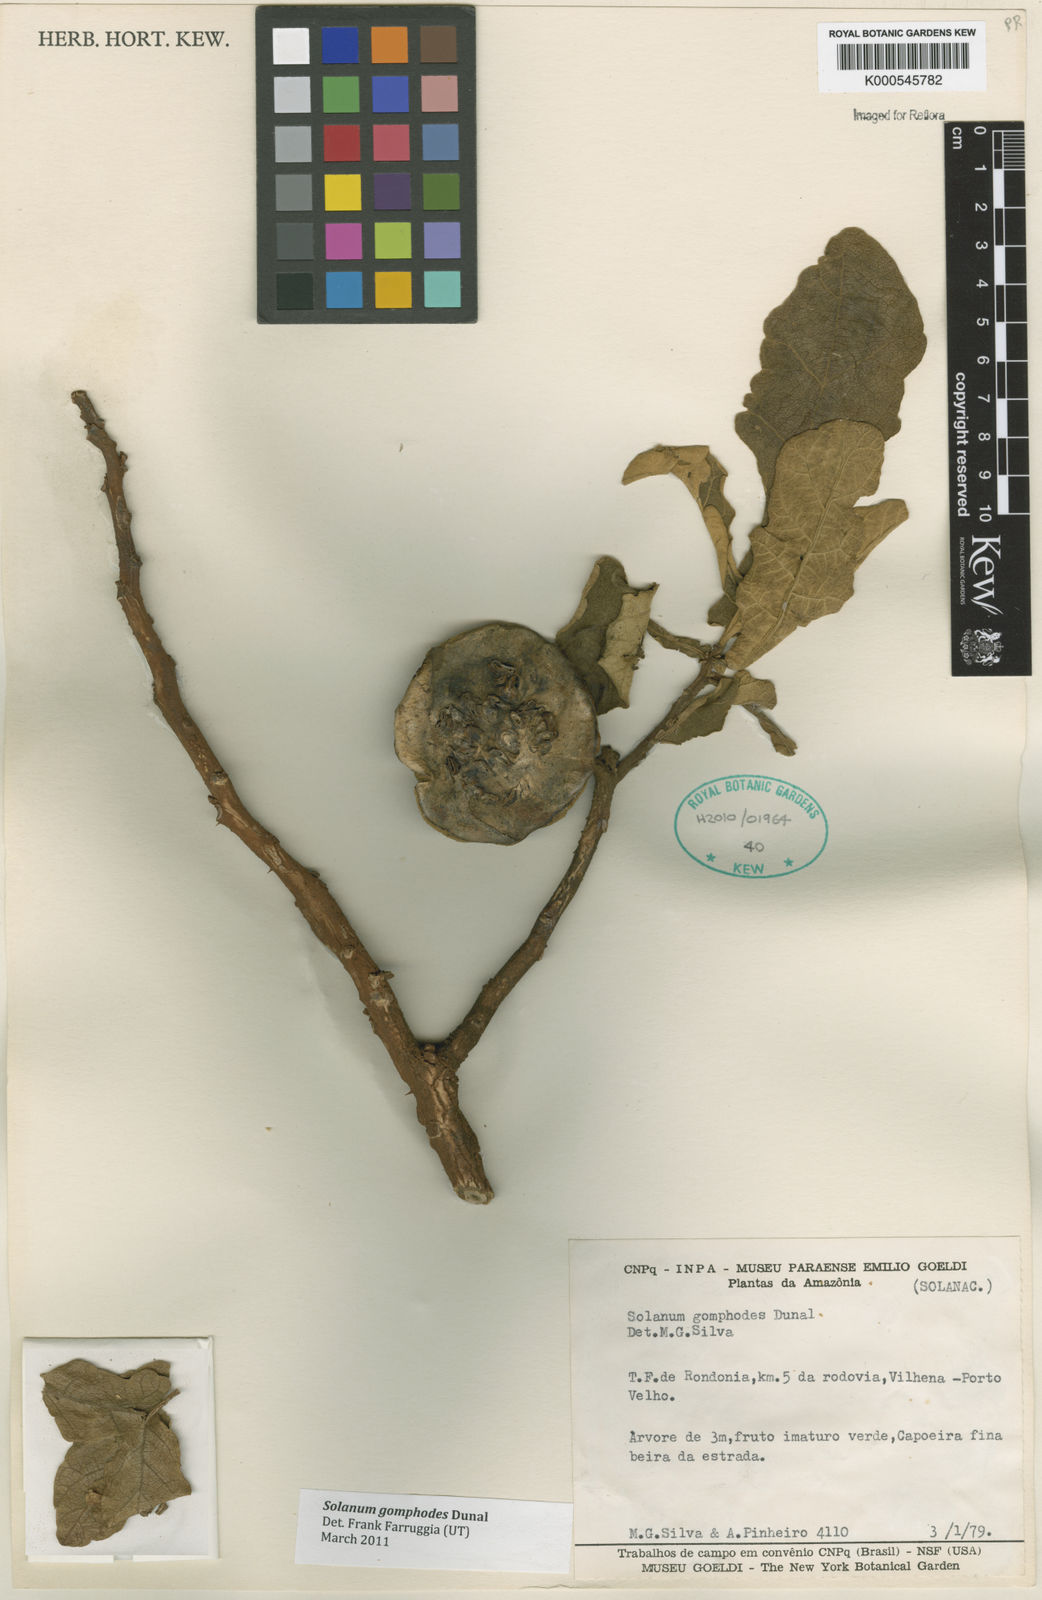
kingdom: Plantae
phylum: Tracheophyta
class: Magnoliopsida
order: Solanales
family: Solanaceae
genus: Solanum
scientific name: Solanum gomphodes
